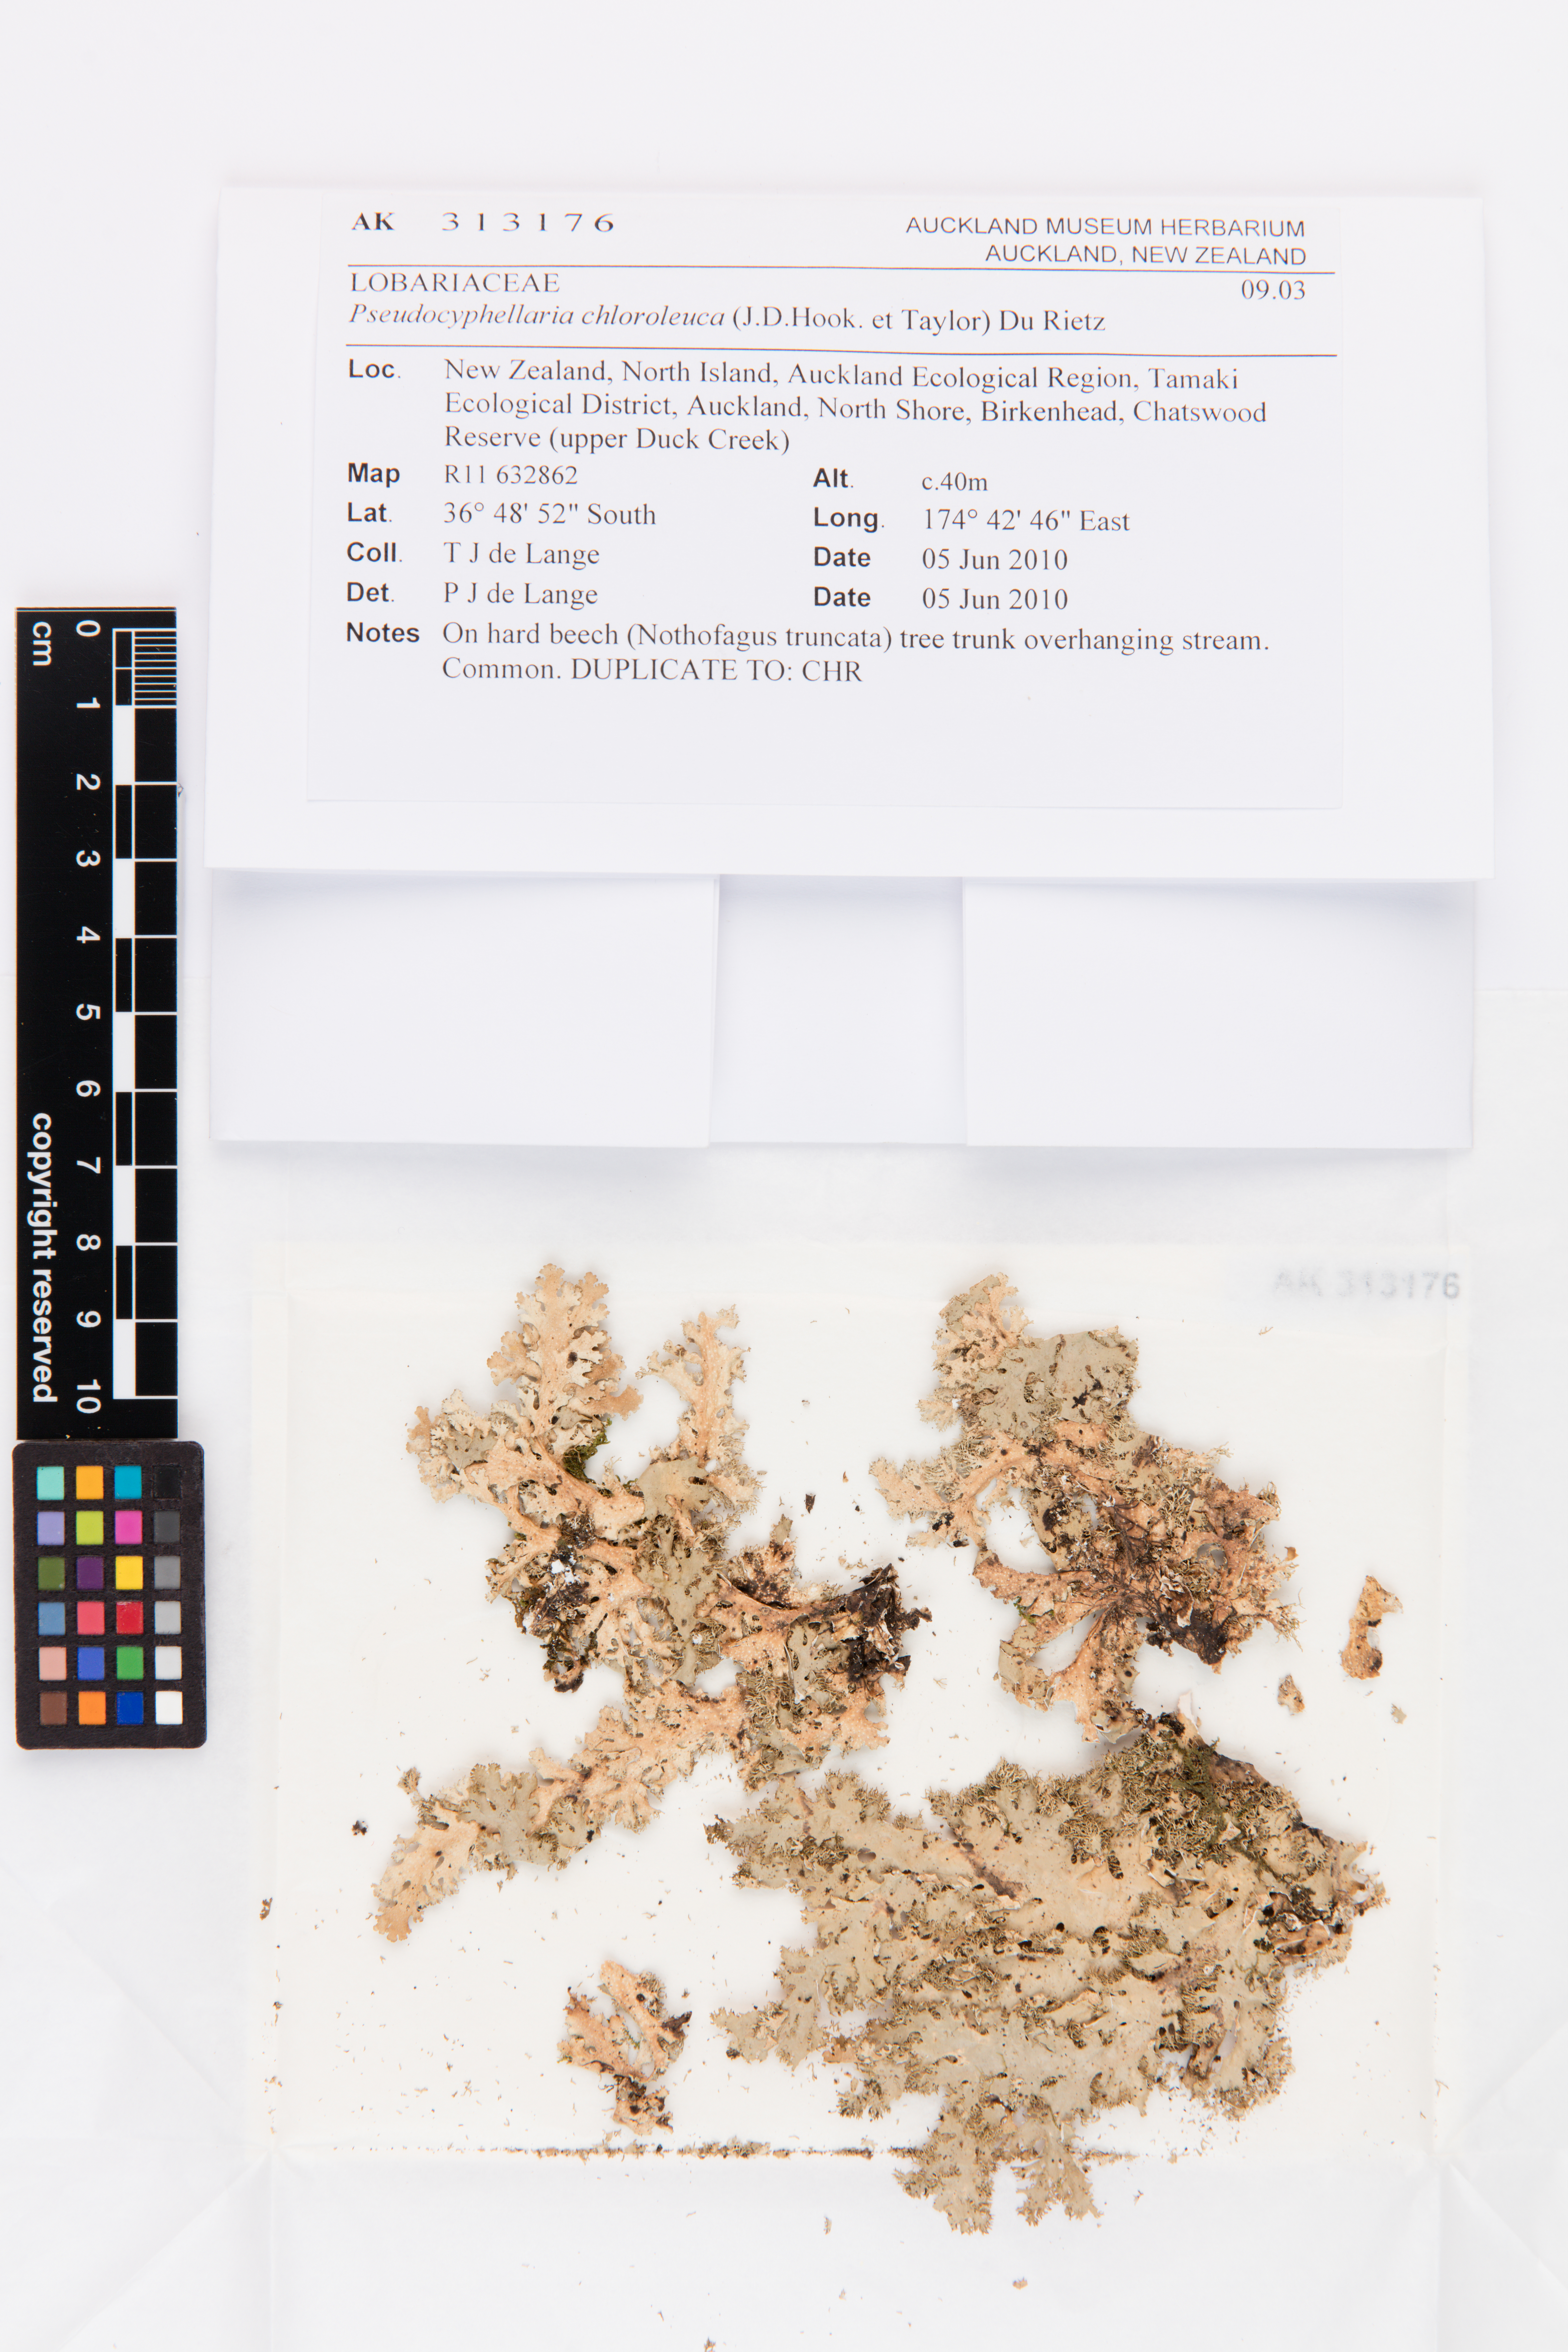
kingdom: Fungi
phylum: Ascomycota
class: Lecanoromycetes
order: Peltigerales
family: Lobariaceae
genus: Pseudocyphellaria
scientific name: Pseudocyphellaria chloroleuca
